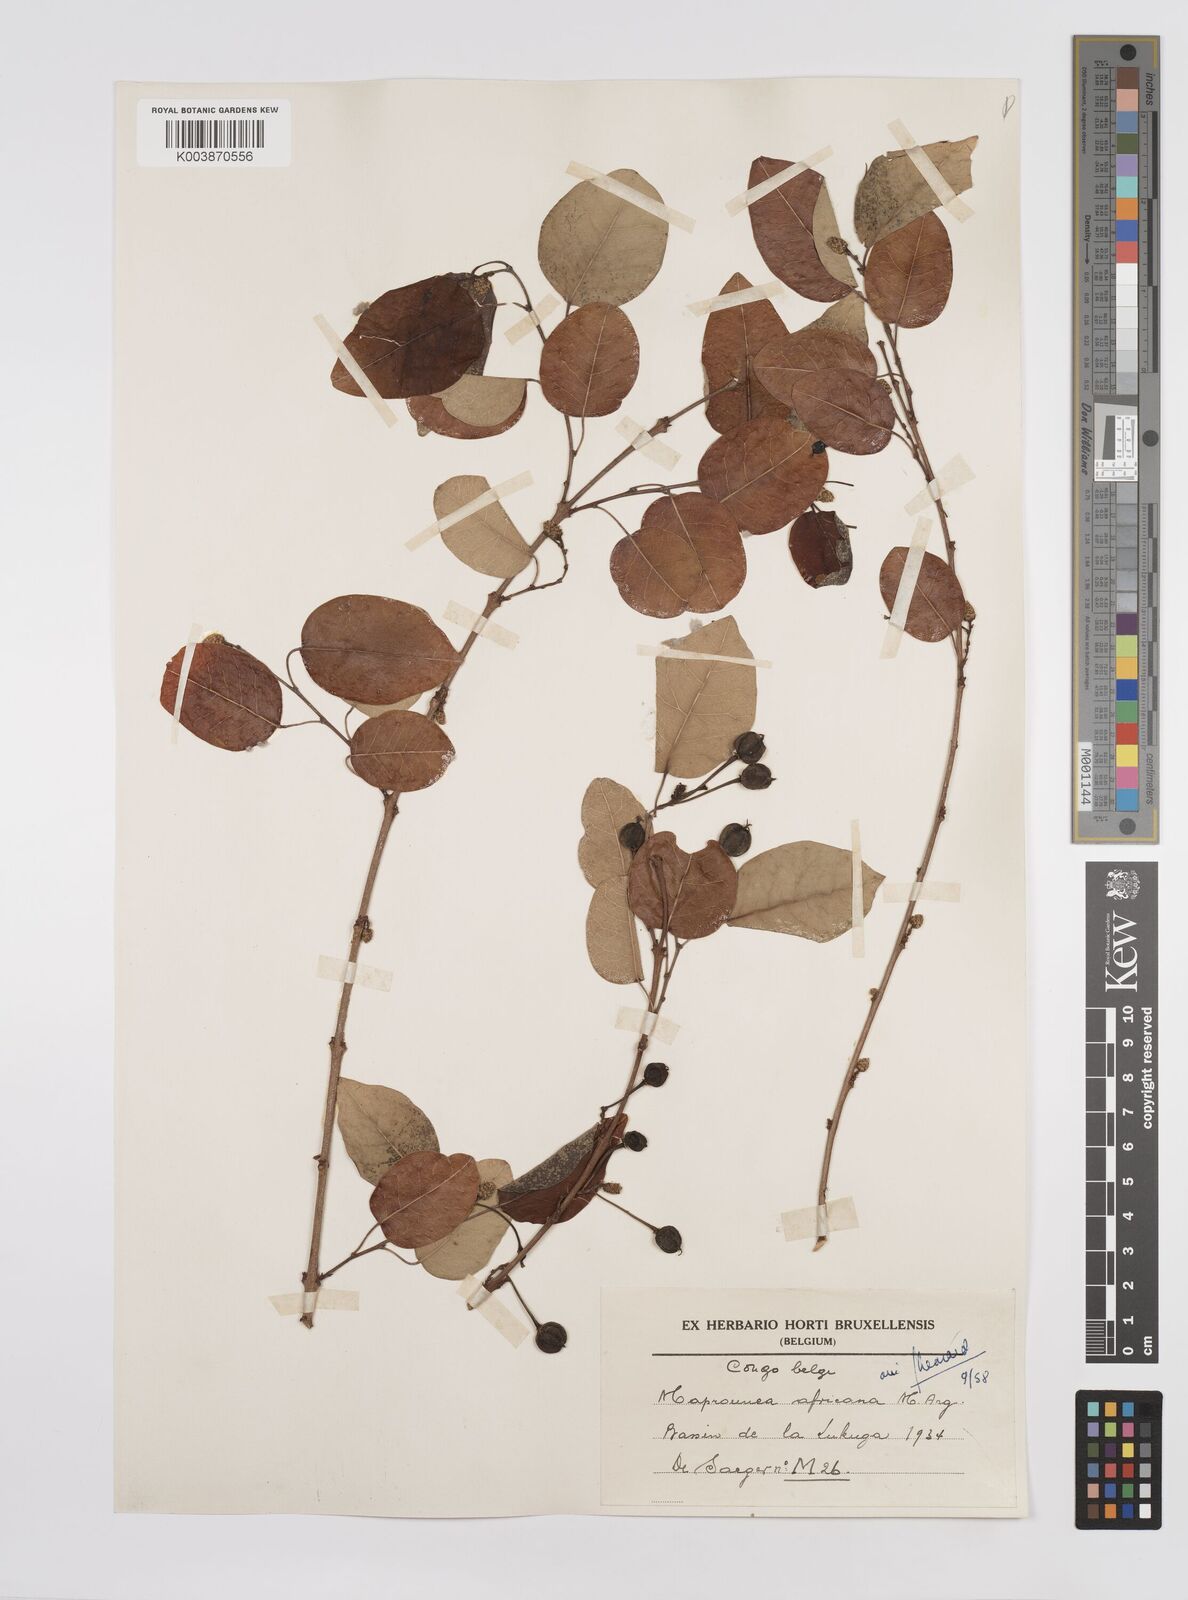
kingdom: Plantae
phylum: Tracheophyta
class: Magnoliopsida
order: Malpighiales
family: Euphorbiaceae
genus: Maprounea
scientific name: Maprounea africana
